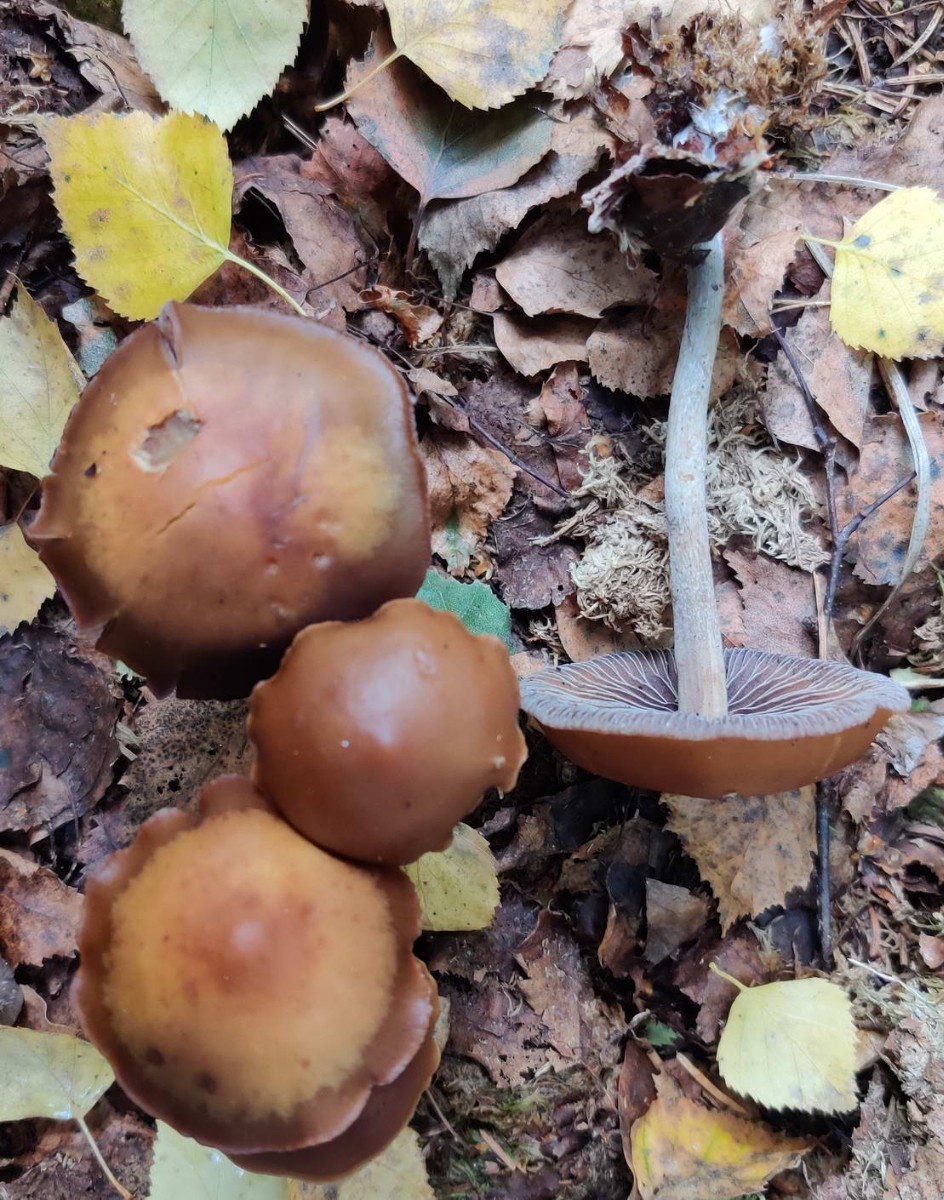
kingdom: Fungi
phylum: Basidiomycota
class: Agaricomycetes
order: Agaricales
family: Strophariaceae
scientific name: Strophariaceae
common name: bredbladfamilien
